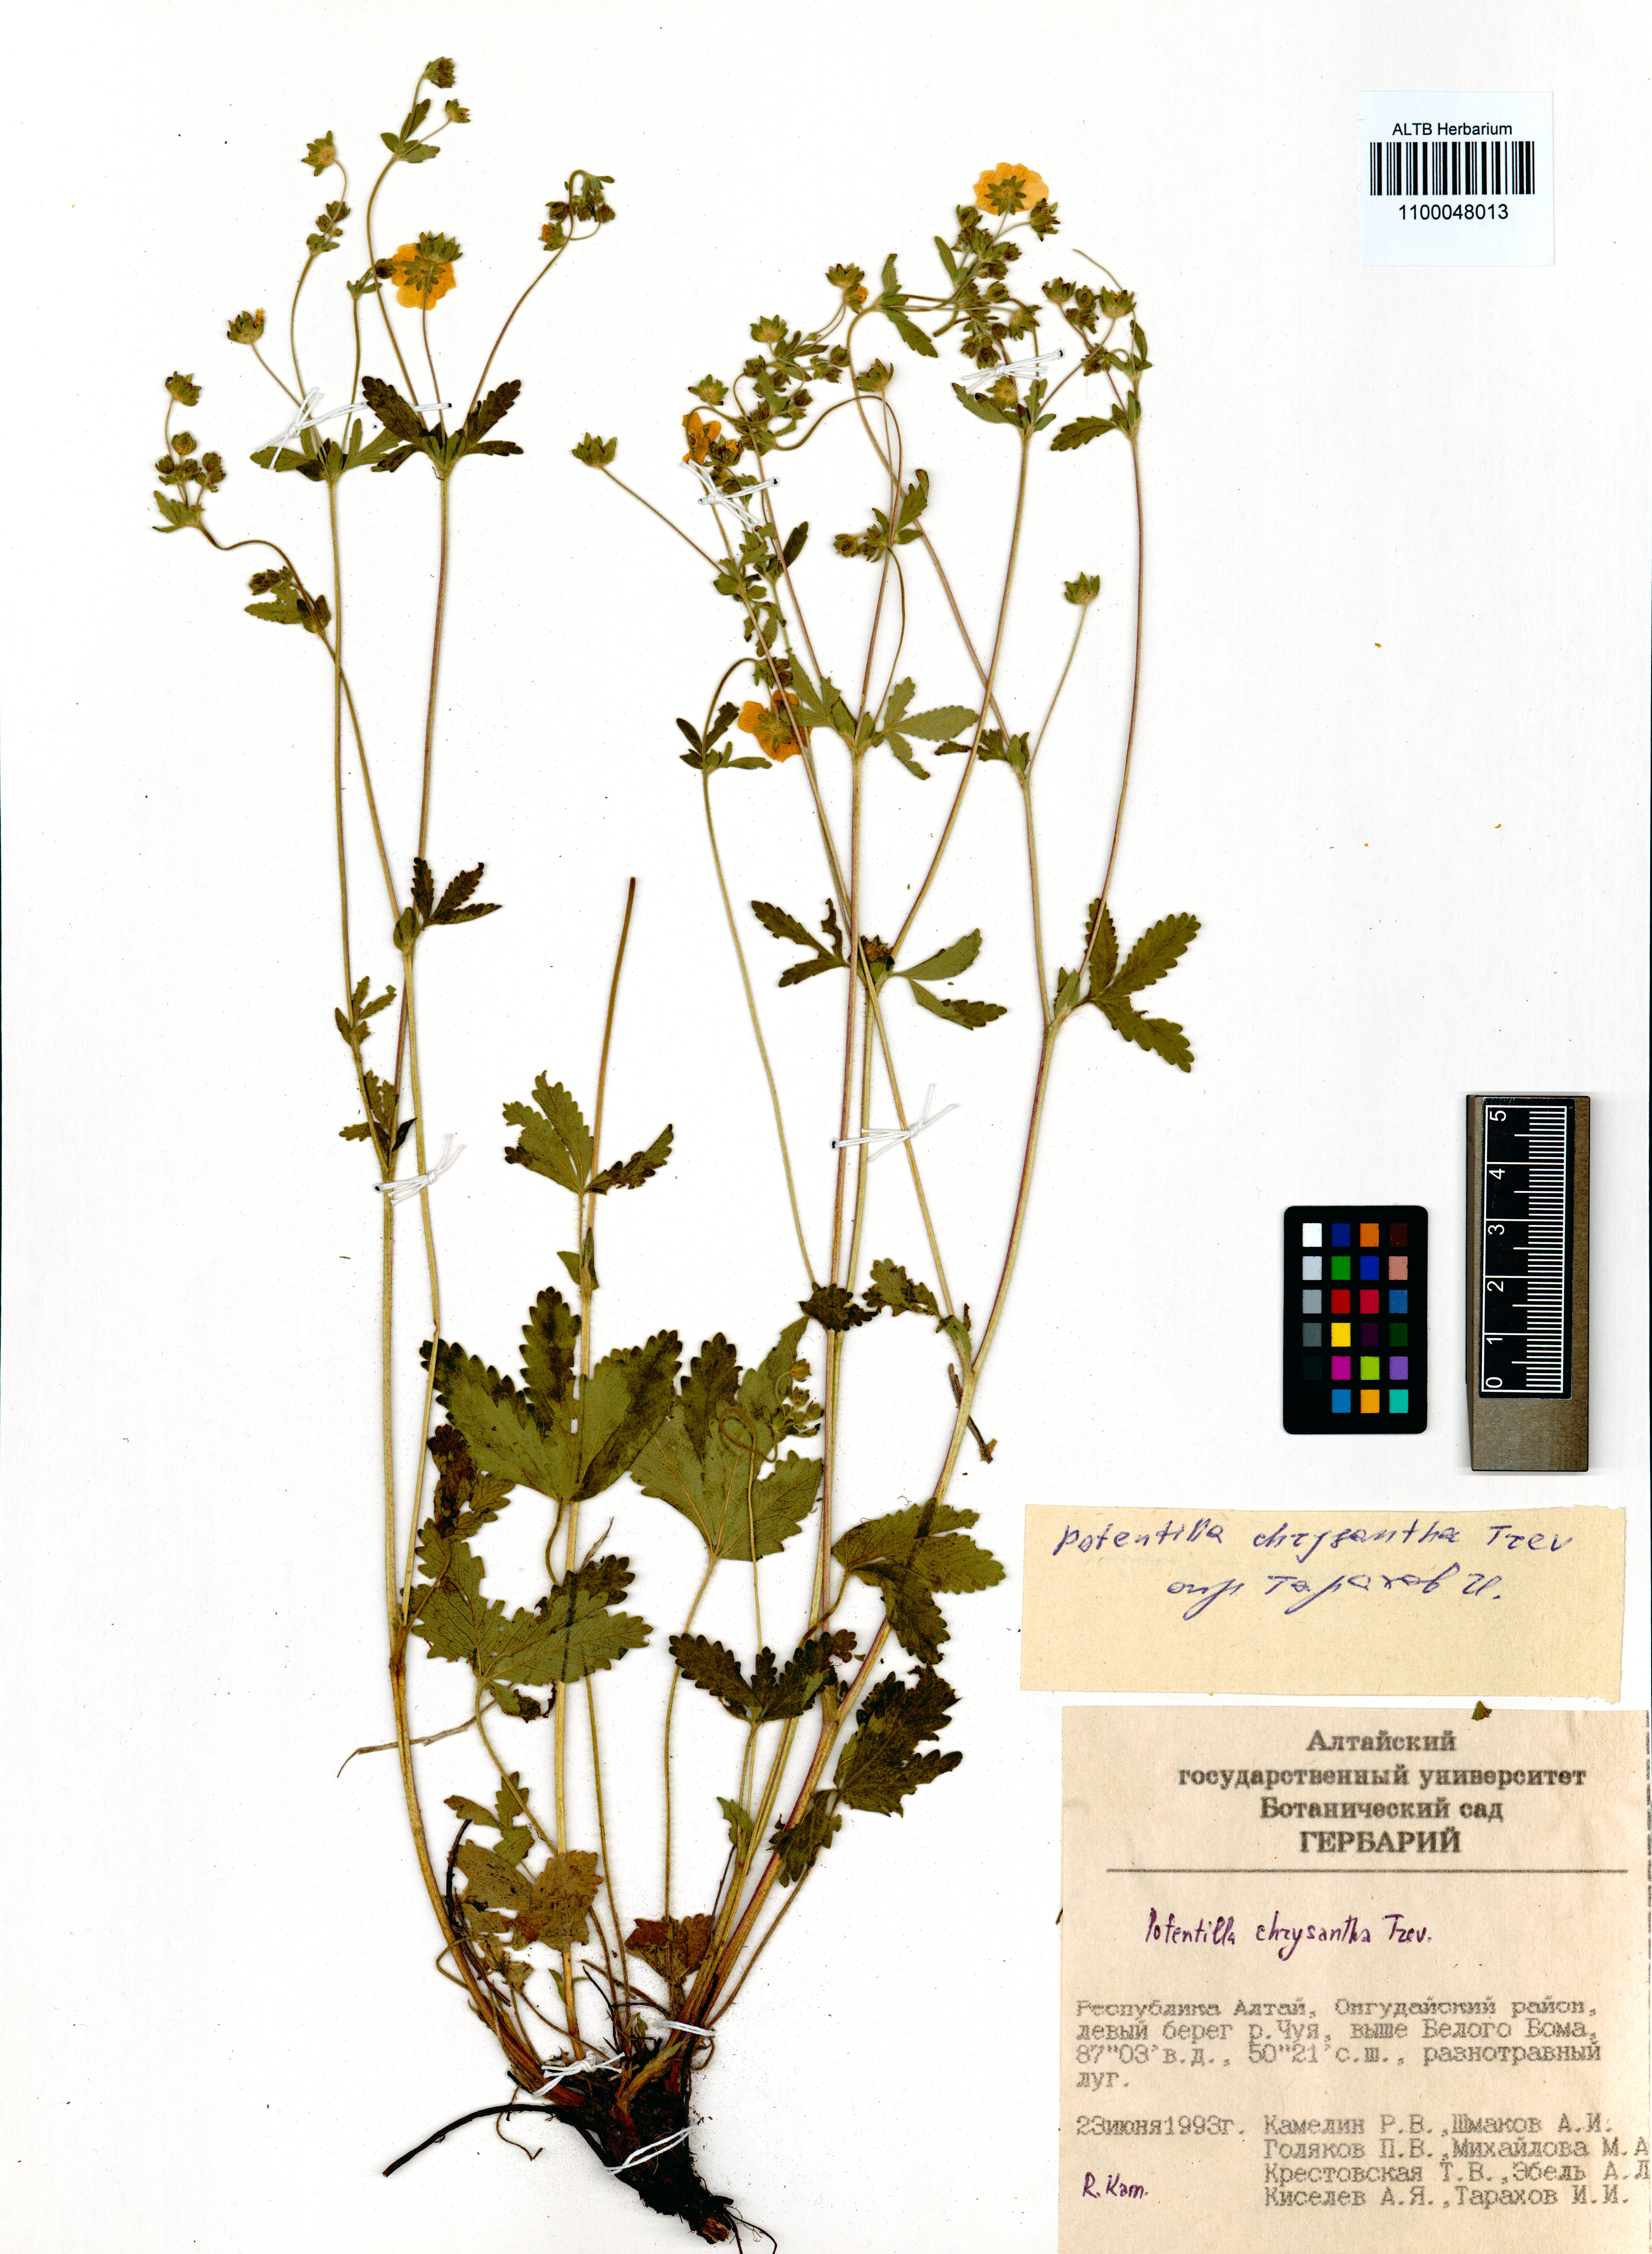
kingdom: Plantae
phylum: Tracheophyta
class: Magnoliopsida
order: Rosales
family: Rosaceae
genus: Potentilla
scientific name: Potentilla chrysantha
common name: Thuringian cinquefoil
